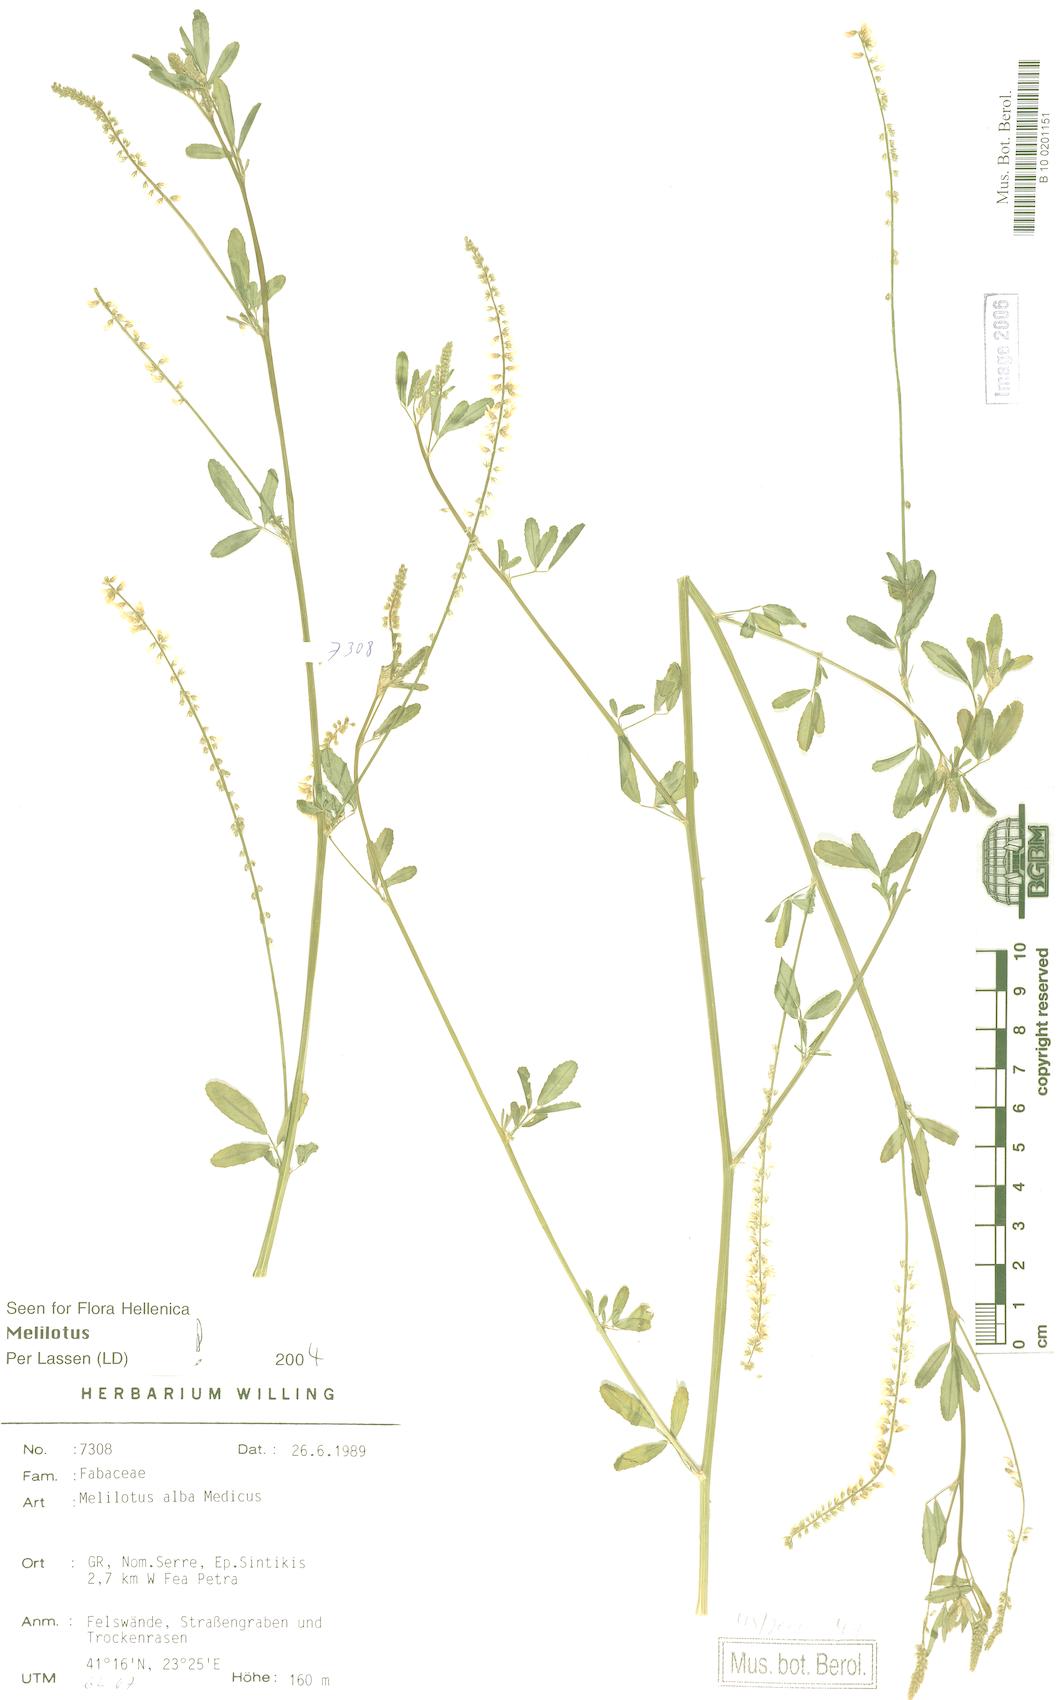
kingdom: Plantae
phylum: Tracheophyta
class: Magnoliopsida
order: Fabales
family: Fabaceae
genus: Melilotus
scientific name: Melilotus albus
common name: White melilot
